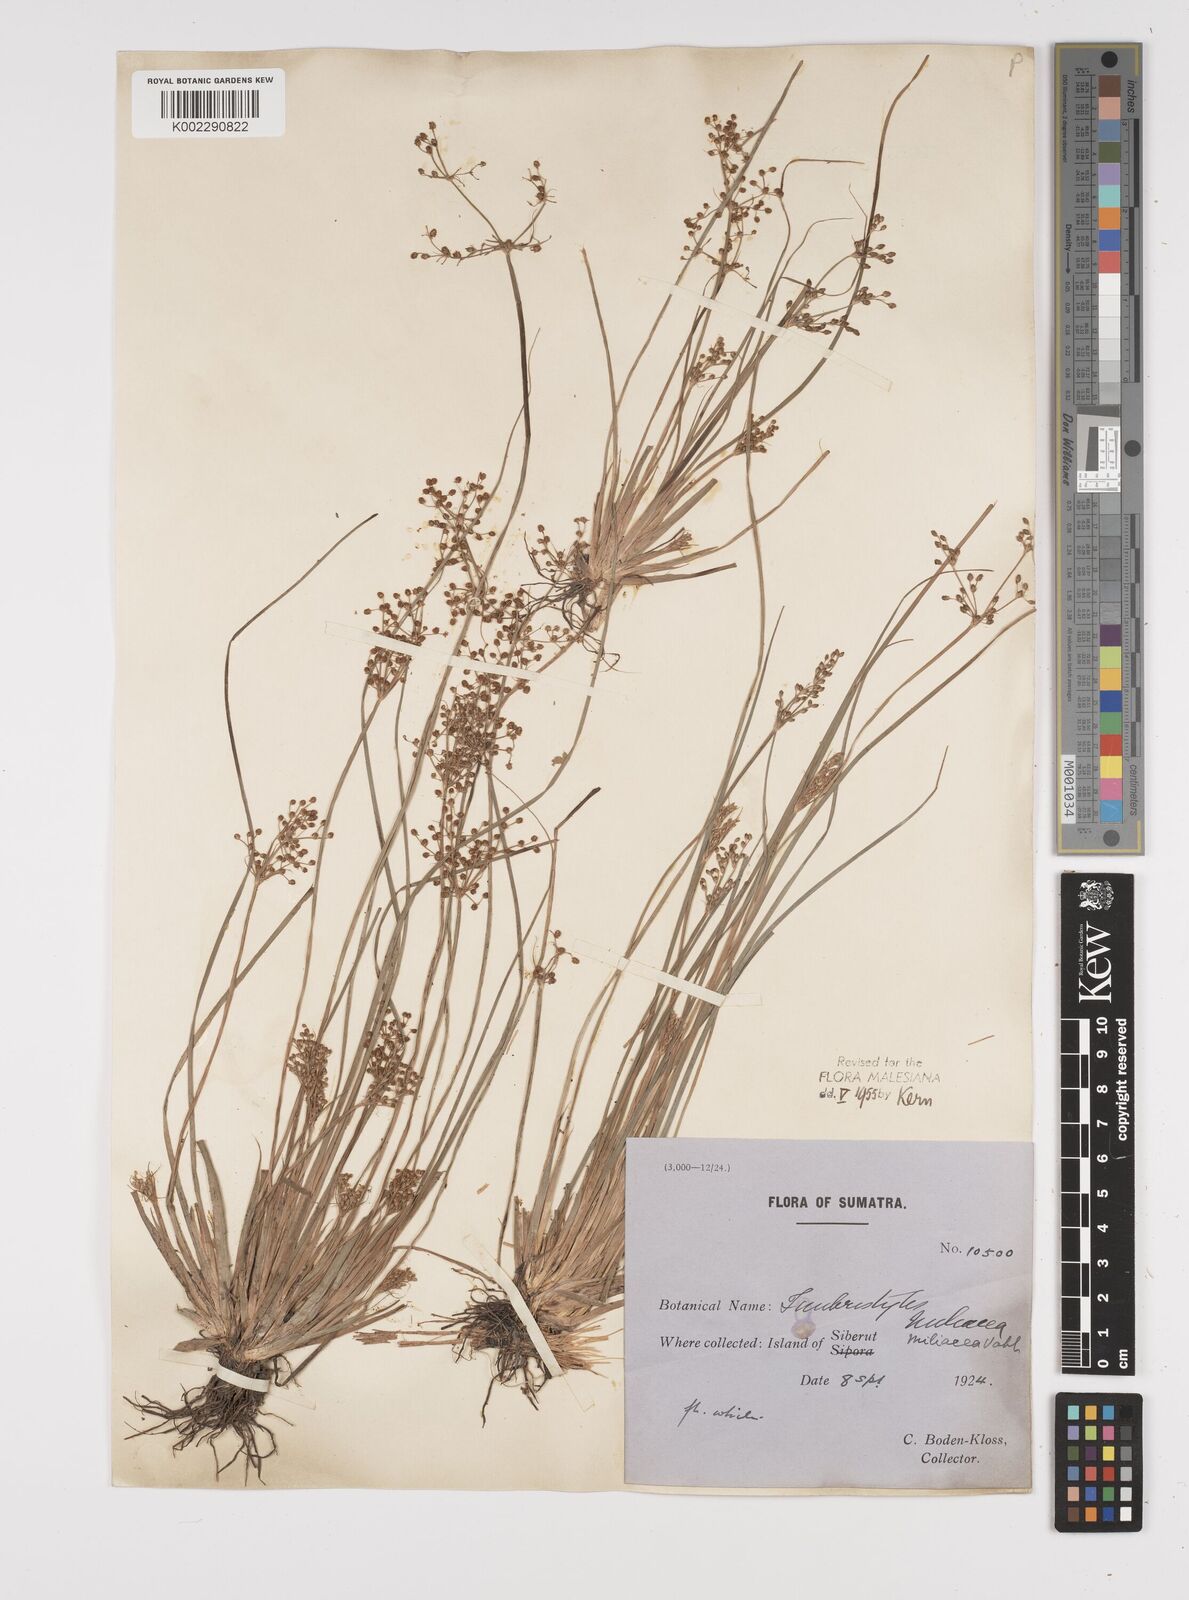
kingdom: Plantae
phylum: Tracheophyta
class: Liliopsida
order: Poales
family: Cyperaceae
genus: Fimbristylis
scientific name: Fimbristylis littoralis
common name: Fimbry
